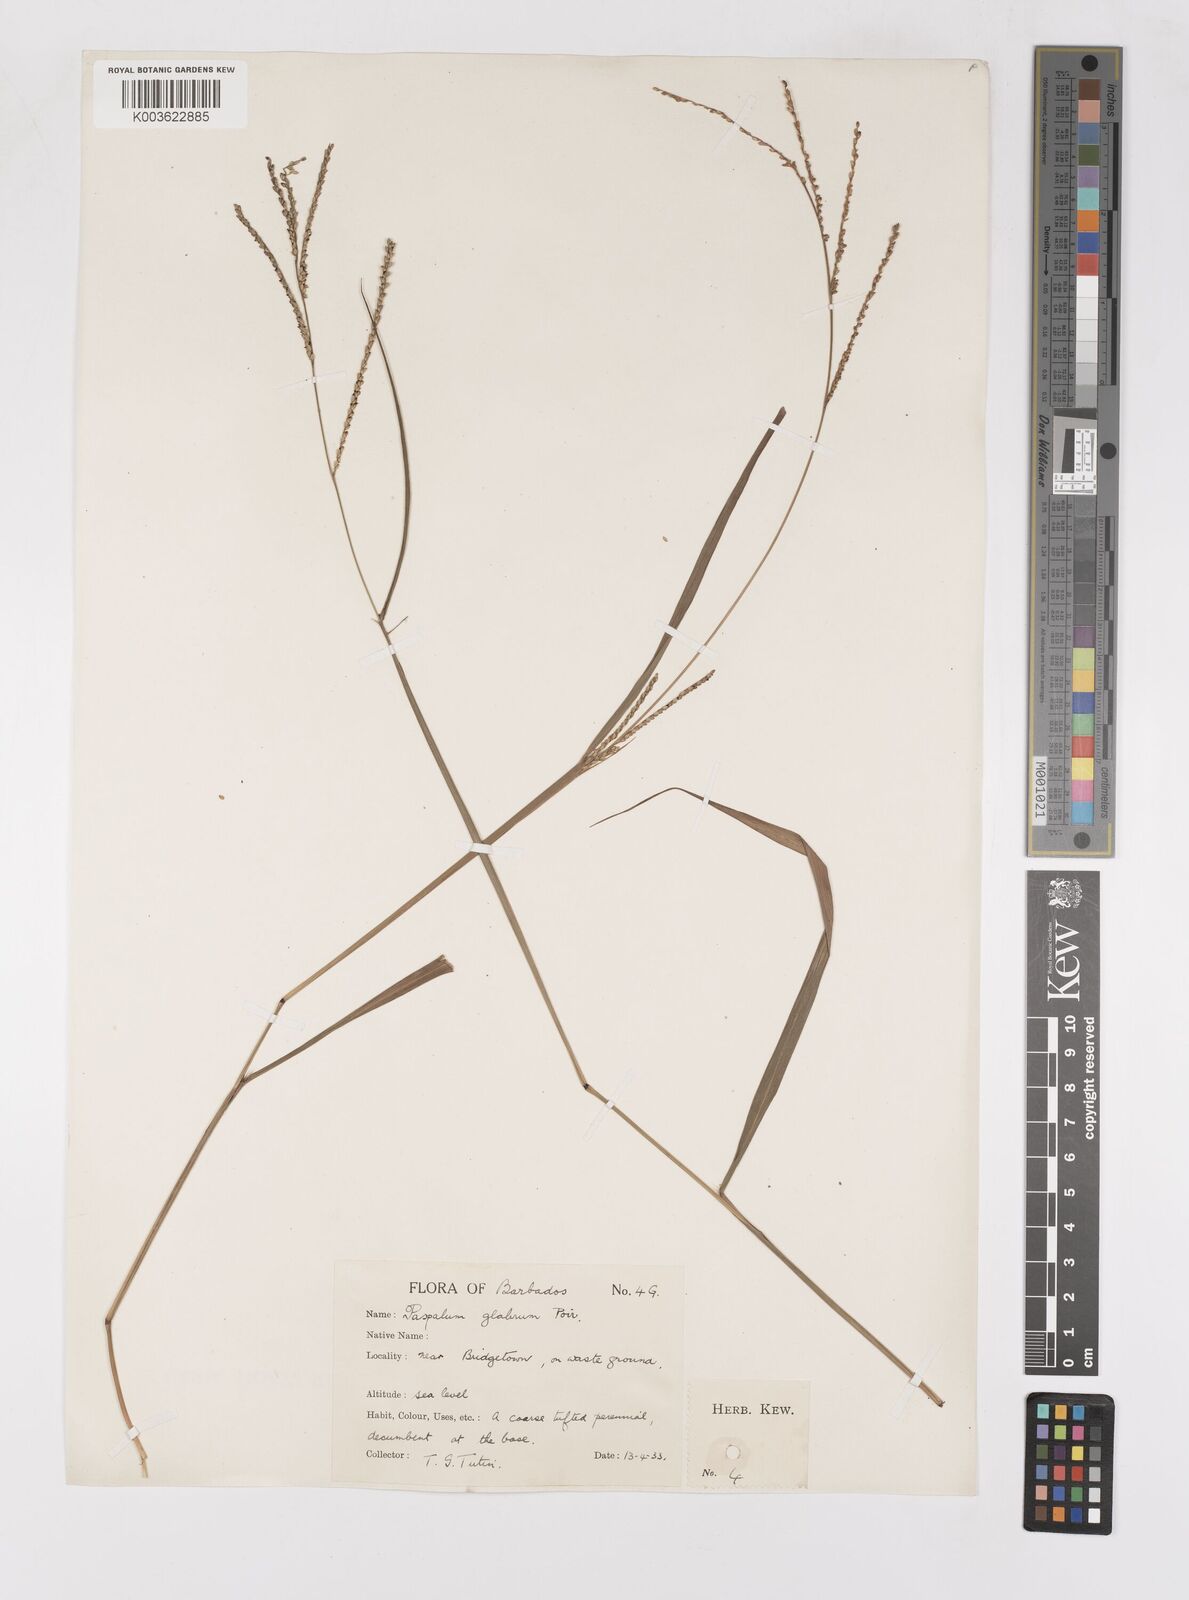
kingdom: Plantae
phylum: Tracheophyta
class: Liliopsida
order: Poales
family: Poaceae
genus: Paspalum
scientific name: Paspalum laxum
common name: Coconut paspalum
